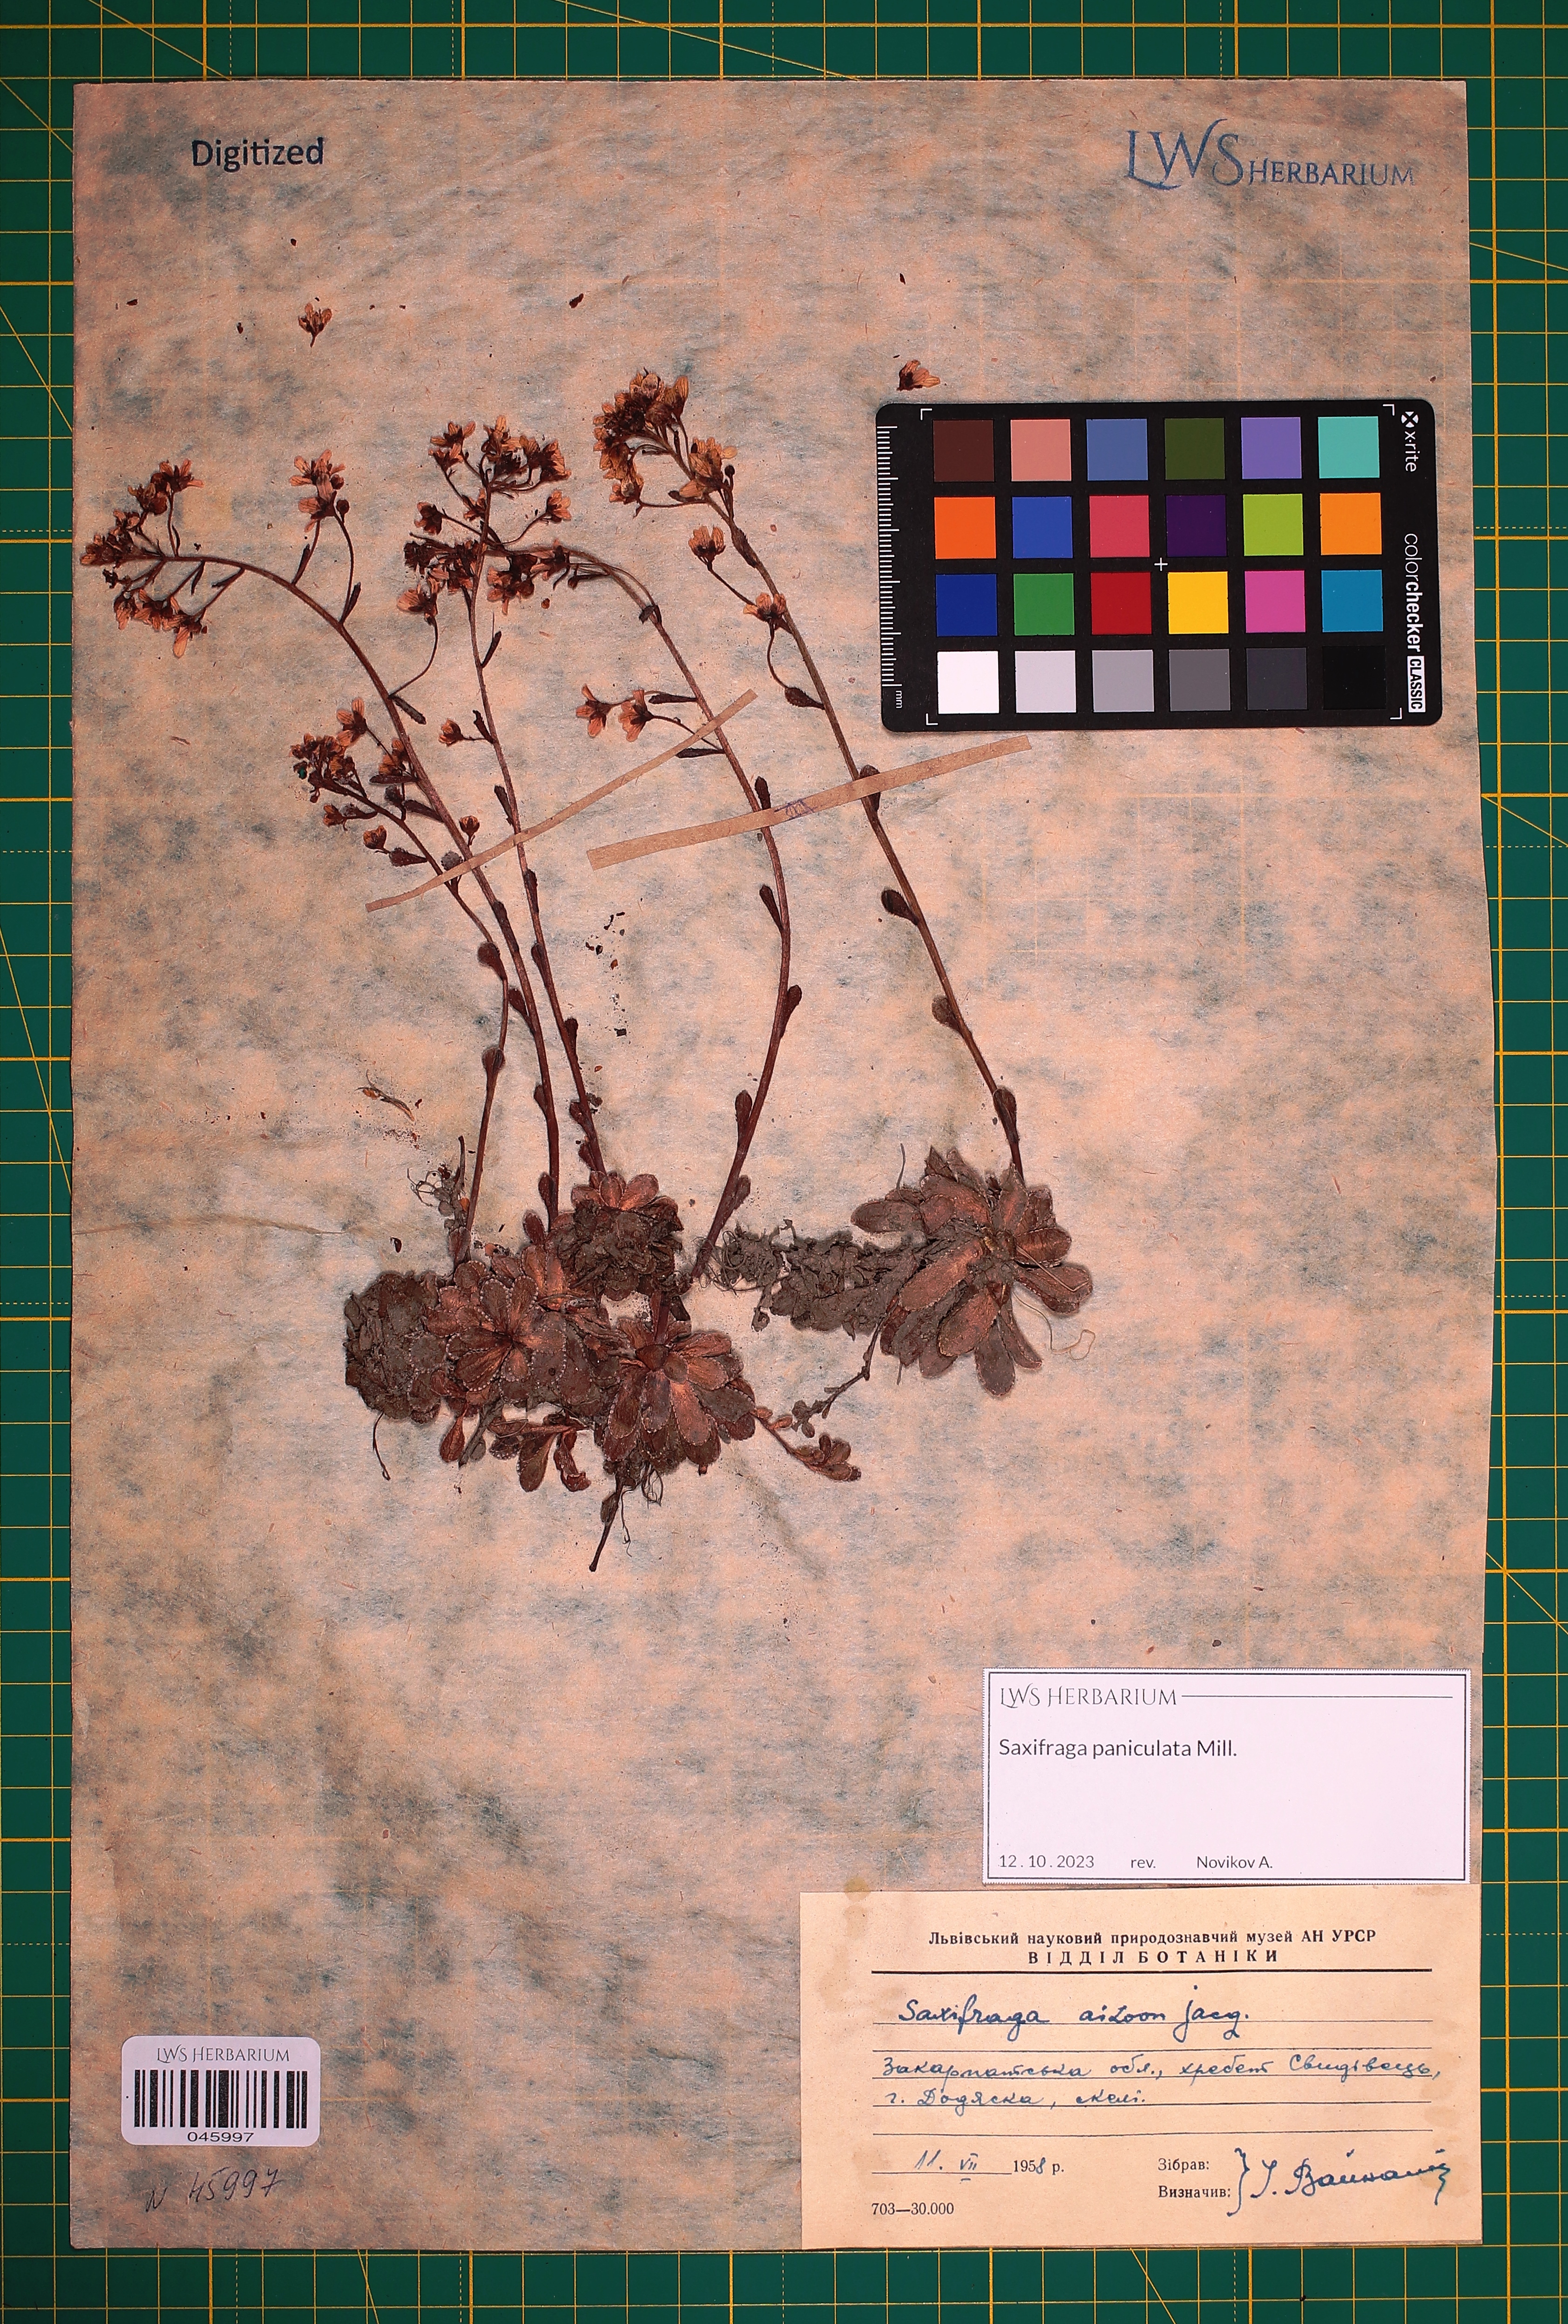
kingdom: Plantae
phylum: Tracheophyta
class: Magnoliopsida
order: Saxifragales
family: Saxifragaceae
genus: Saxifraga
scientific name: Saxifraga paniculata
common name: Livelong saxifrage
